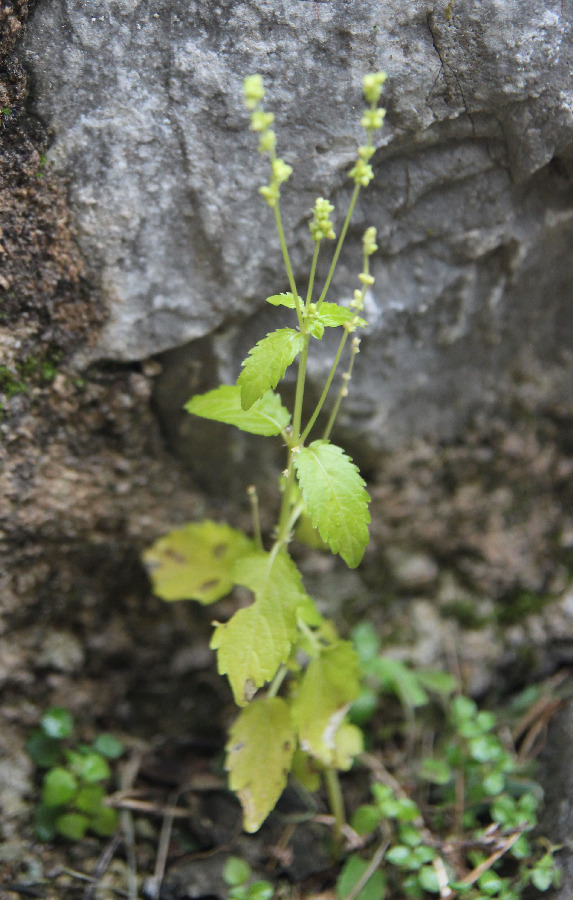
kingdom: Plantae
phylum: Tracheophyta
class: Magnoliopsida
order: Malpighiales
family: Euphorbiaceae
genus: Mercurialis
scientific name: Mercurialis annua
